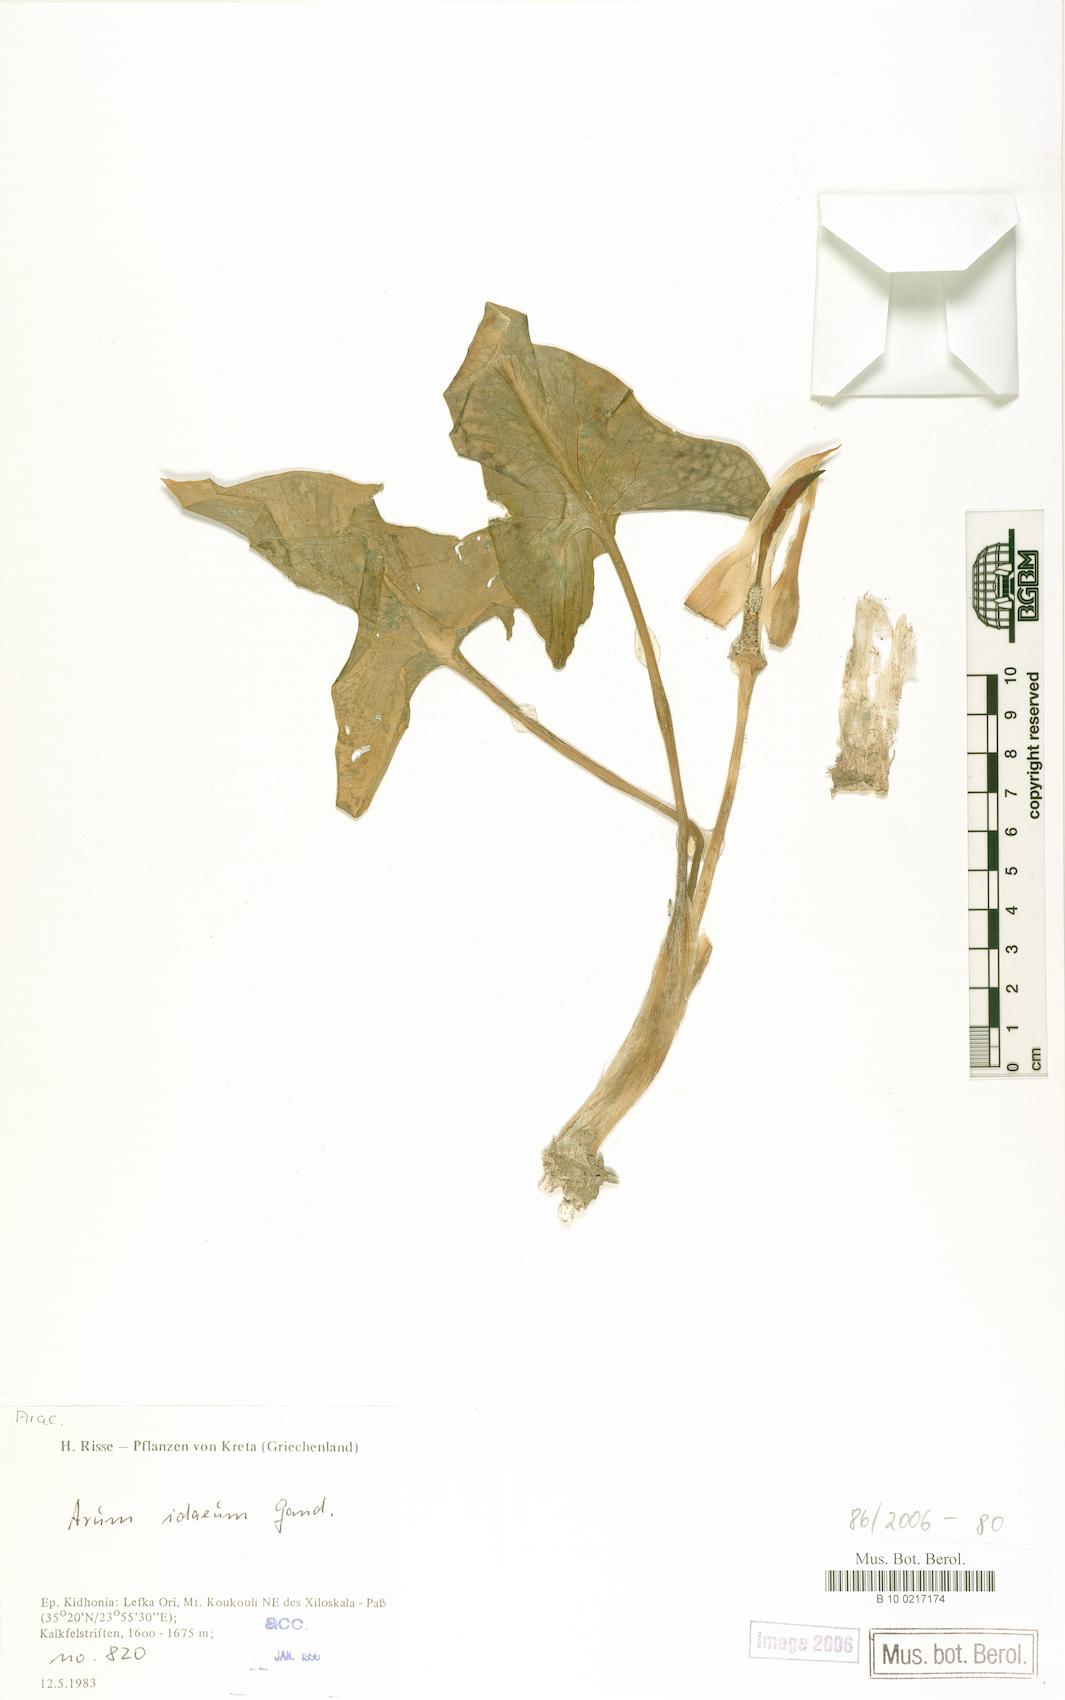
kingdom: Plantae
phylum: Tracheophyta
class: Liliopsida
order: Alismatales
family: Araceae
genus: Arum
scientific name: Arum idaeum
